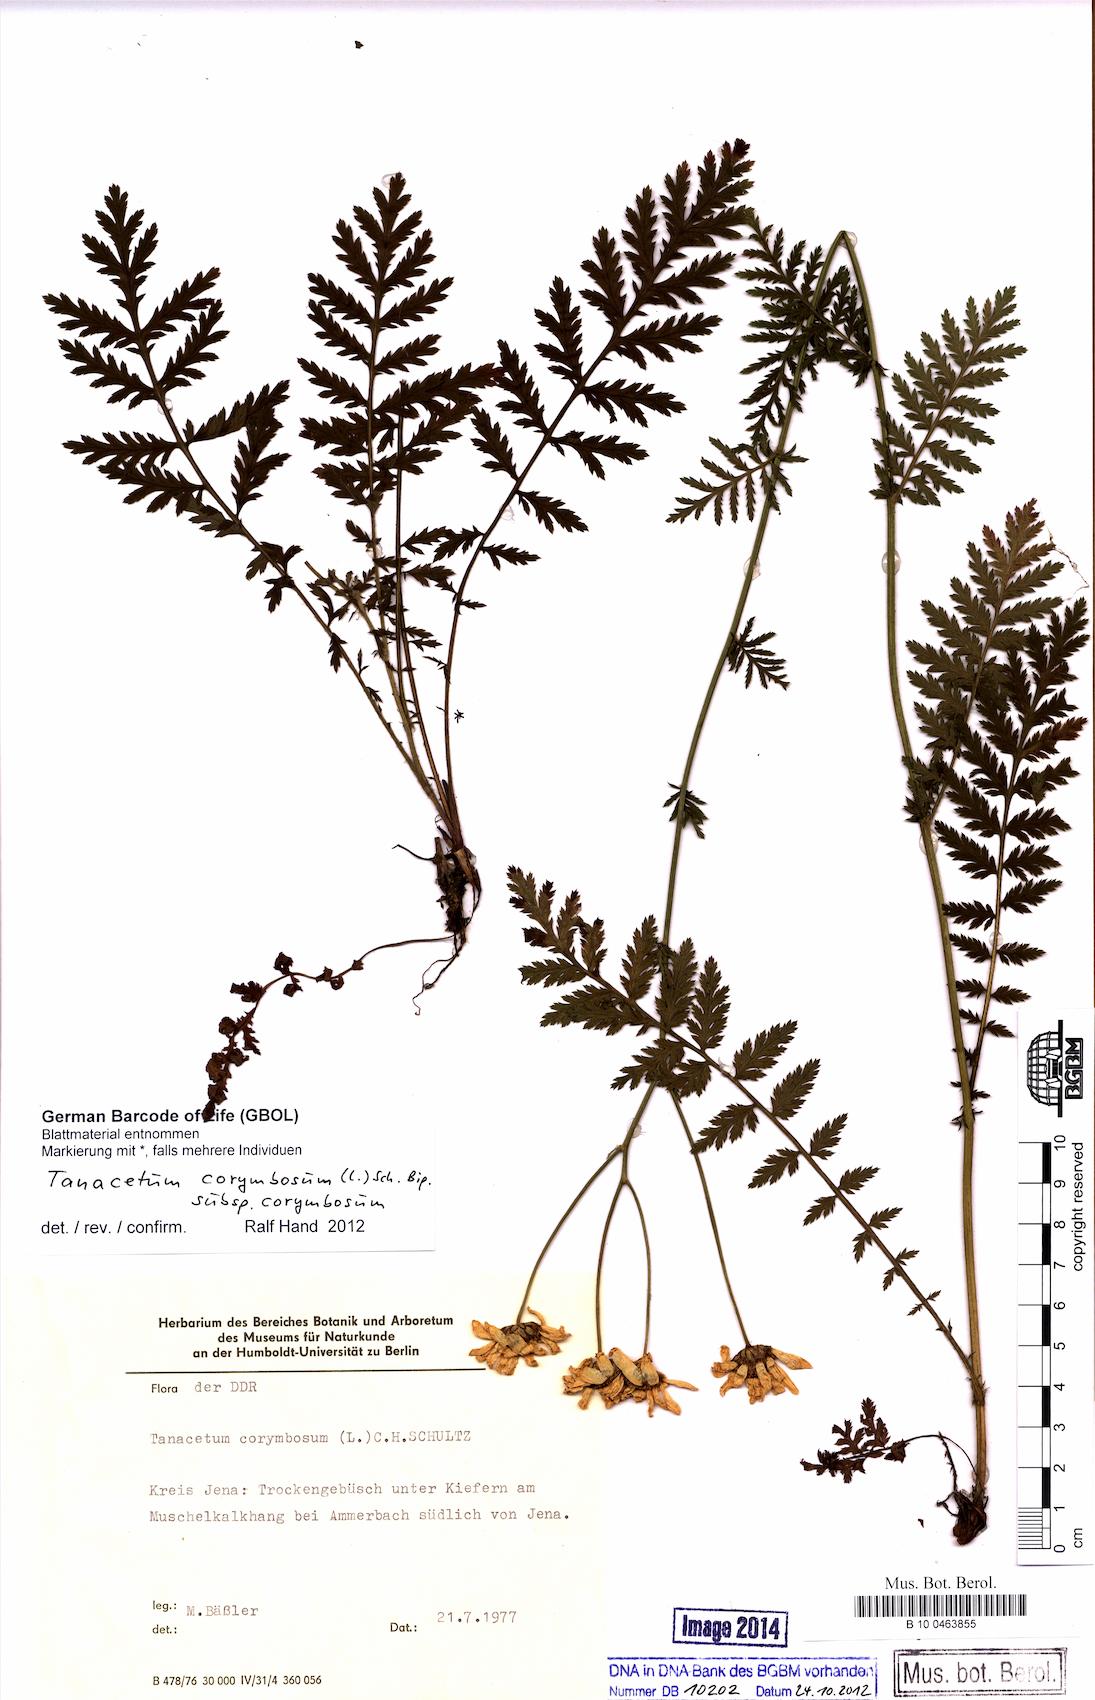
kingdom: Plantae
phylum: Tracheophyta
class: Magnoliopsida
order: Asterales
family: Asteraceae
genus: Tanacetum
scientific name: Tanacetum corymbosum
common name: Scentless feverfew
